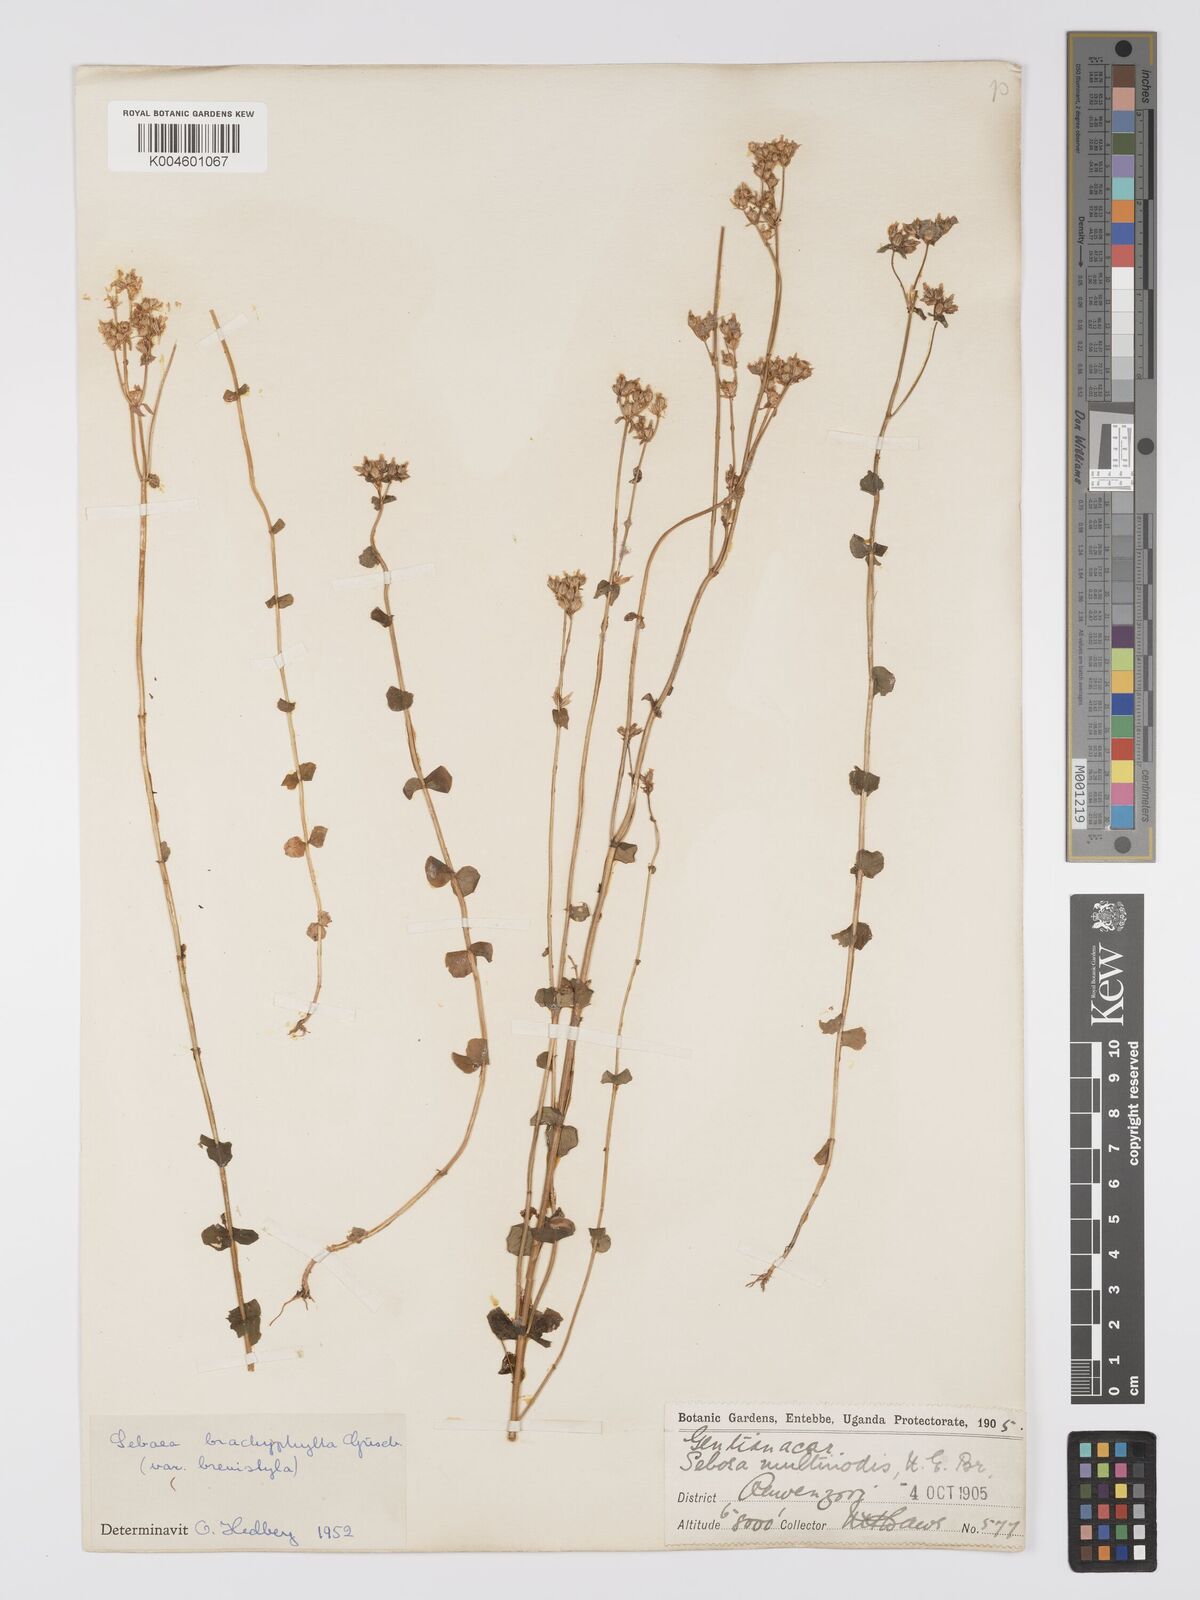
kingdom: Plantae
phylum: Tracheophyta
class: Magnoliopsida
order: Gentianales
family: Gentianaceae
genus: Sebaea
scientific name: Sebaea brachyphylla
